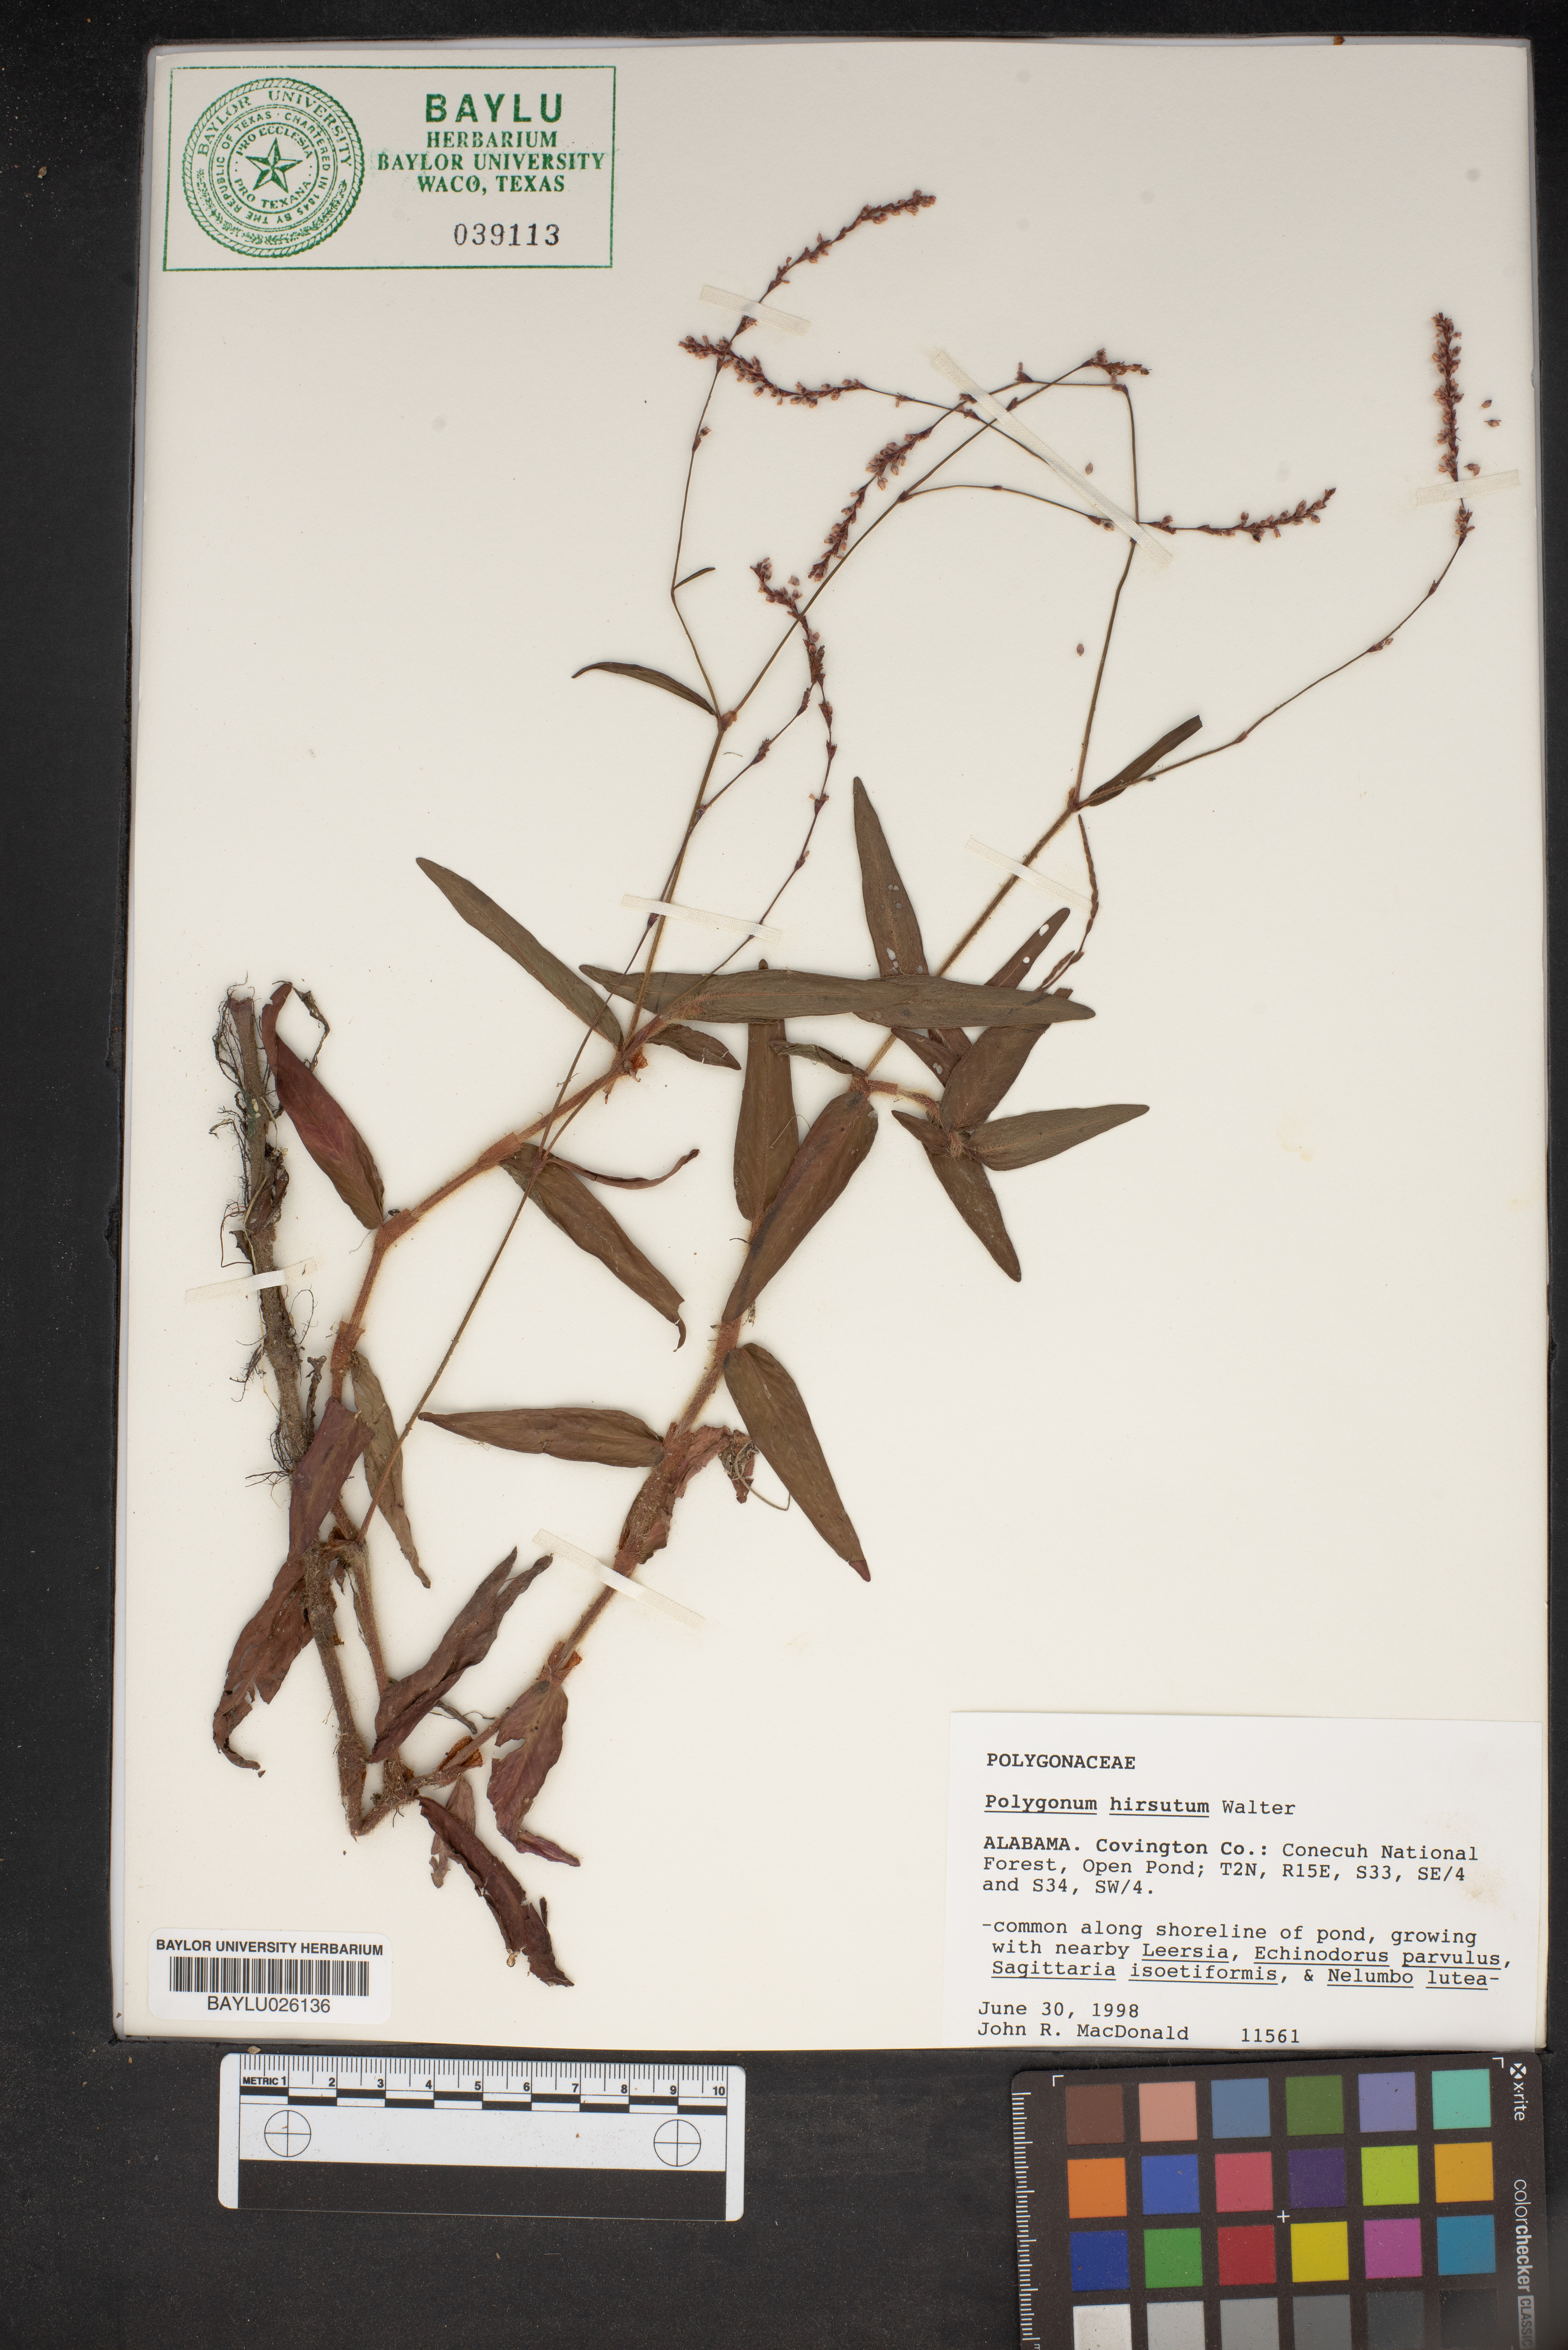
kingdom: Plantae
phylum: Tracheophyta
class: Magnoliopsida
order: Caryophyllales
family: Polygonaceae
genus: Persicaria
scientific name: Persicaria hirsuta
